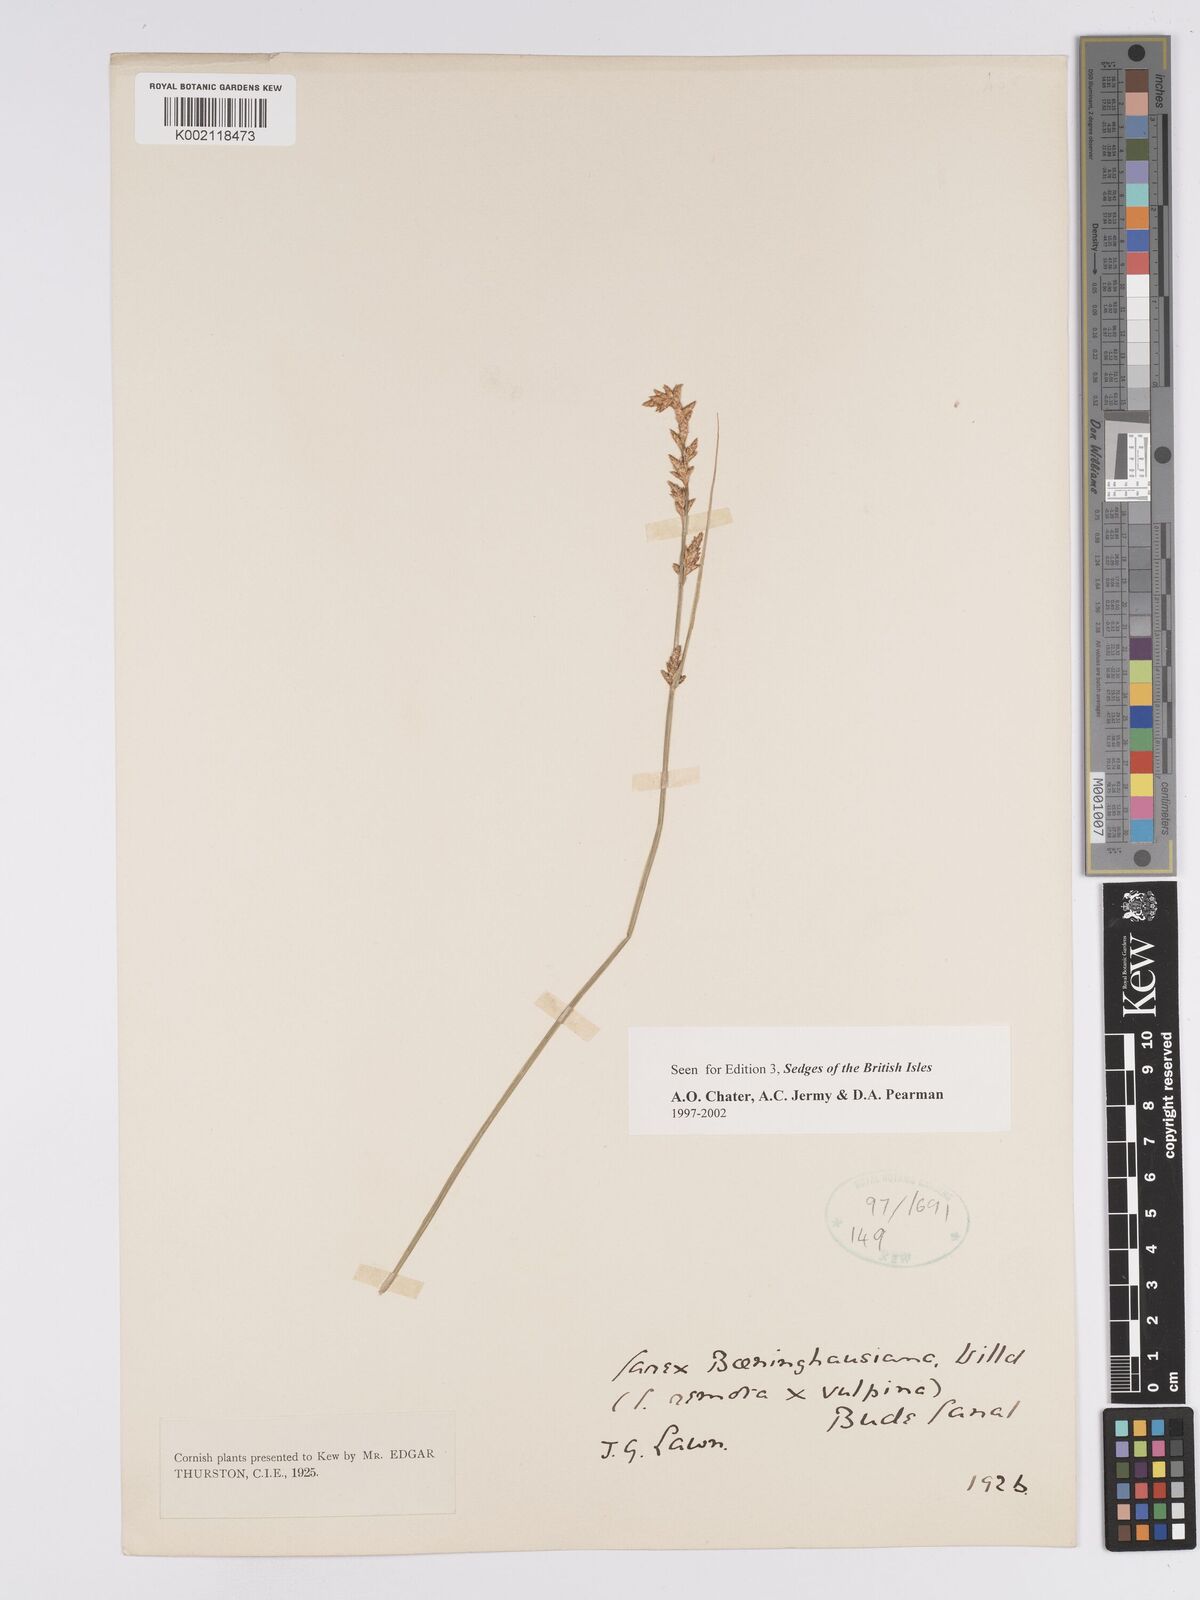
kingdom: Plantae
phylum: Tracheophyta
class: Liliopsida
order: Poales
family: Cyperaceae
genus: Carex
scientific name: Carex boenninghausiana
